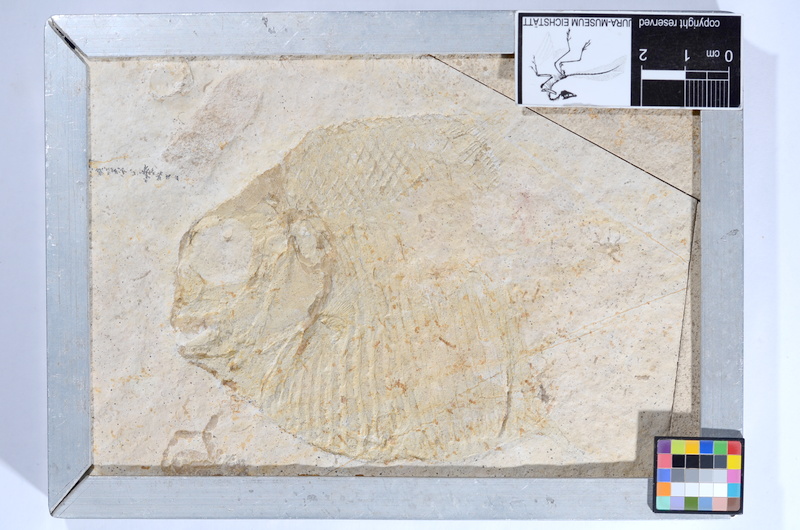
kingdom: Animalia
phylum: Chordata
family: Gyrodontidae
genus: Gyrodus
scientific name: Gyrodus hexagonus
